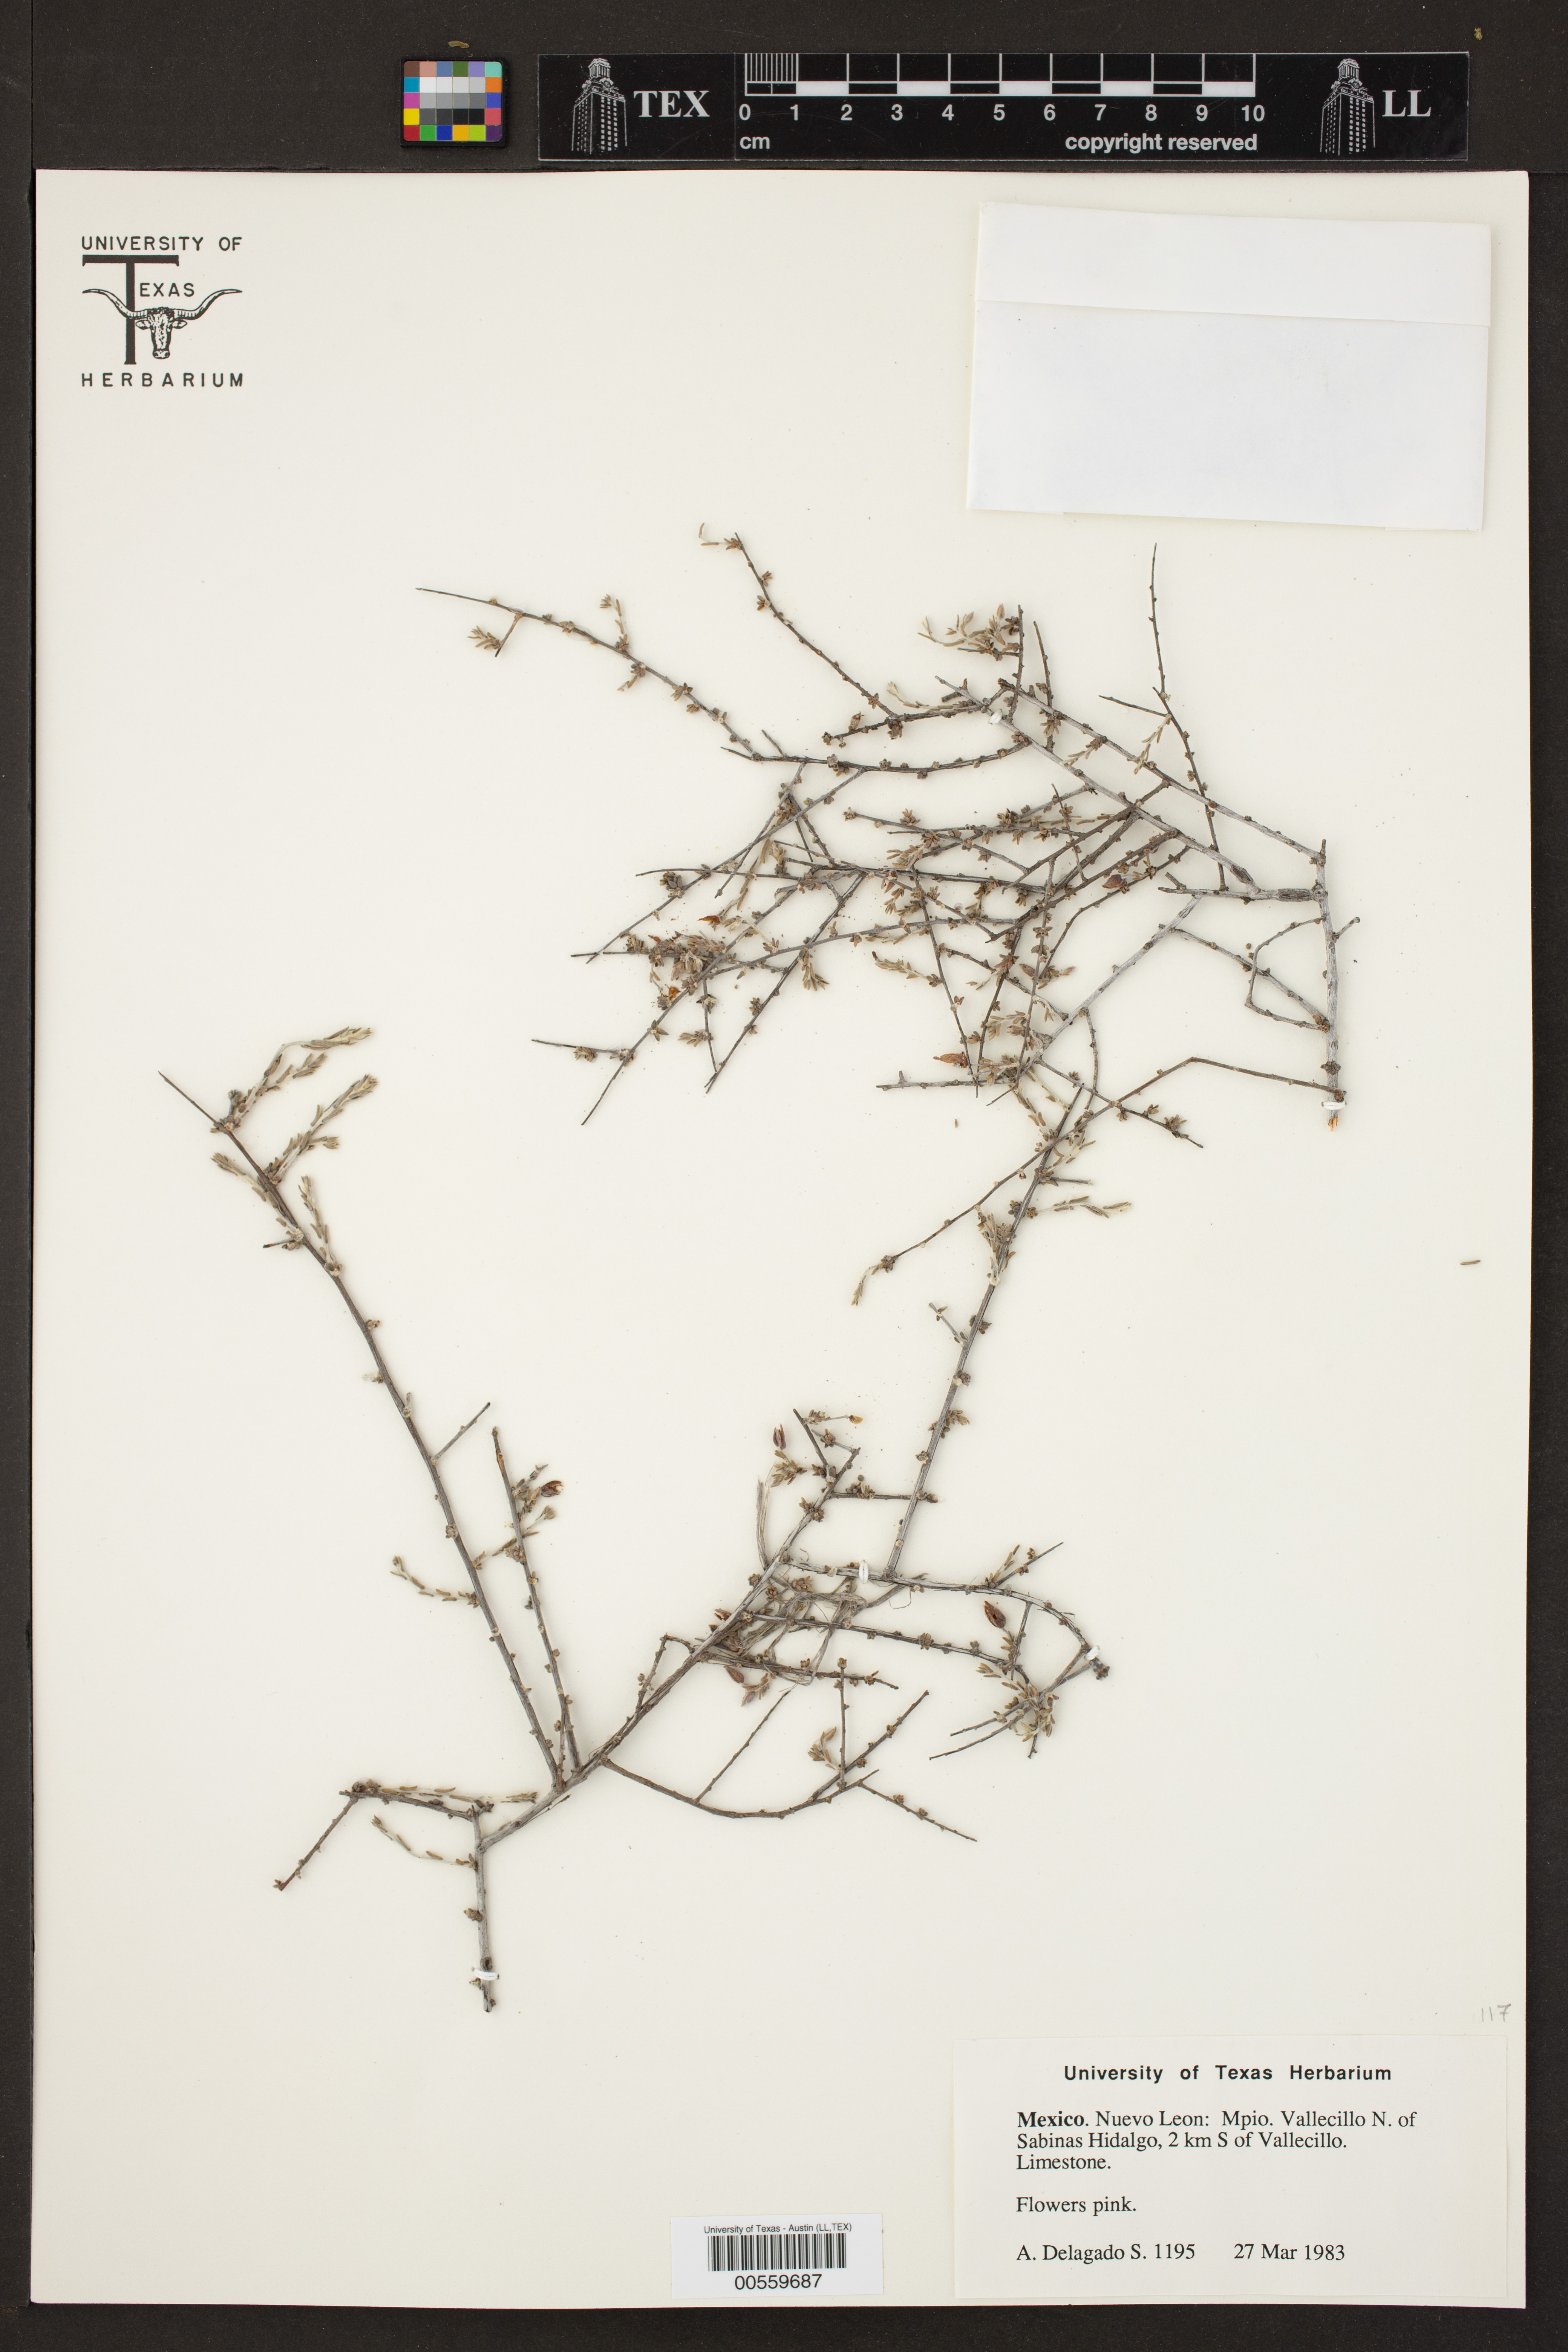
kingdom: Plantae
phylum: Tracheophyta
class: Magnoliopsida
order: Zygophyllales
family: Krameriaceae
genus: Krameria
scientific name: Krameria ramosissima
